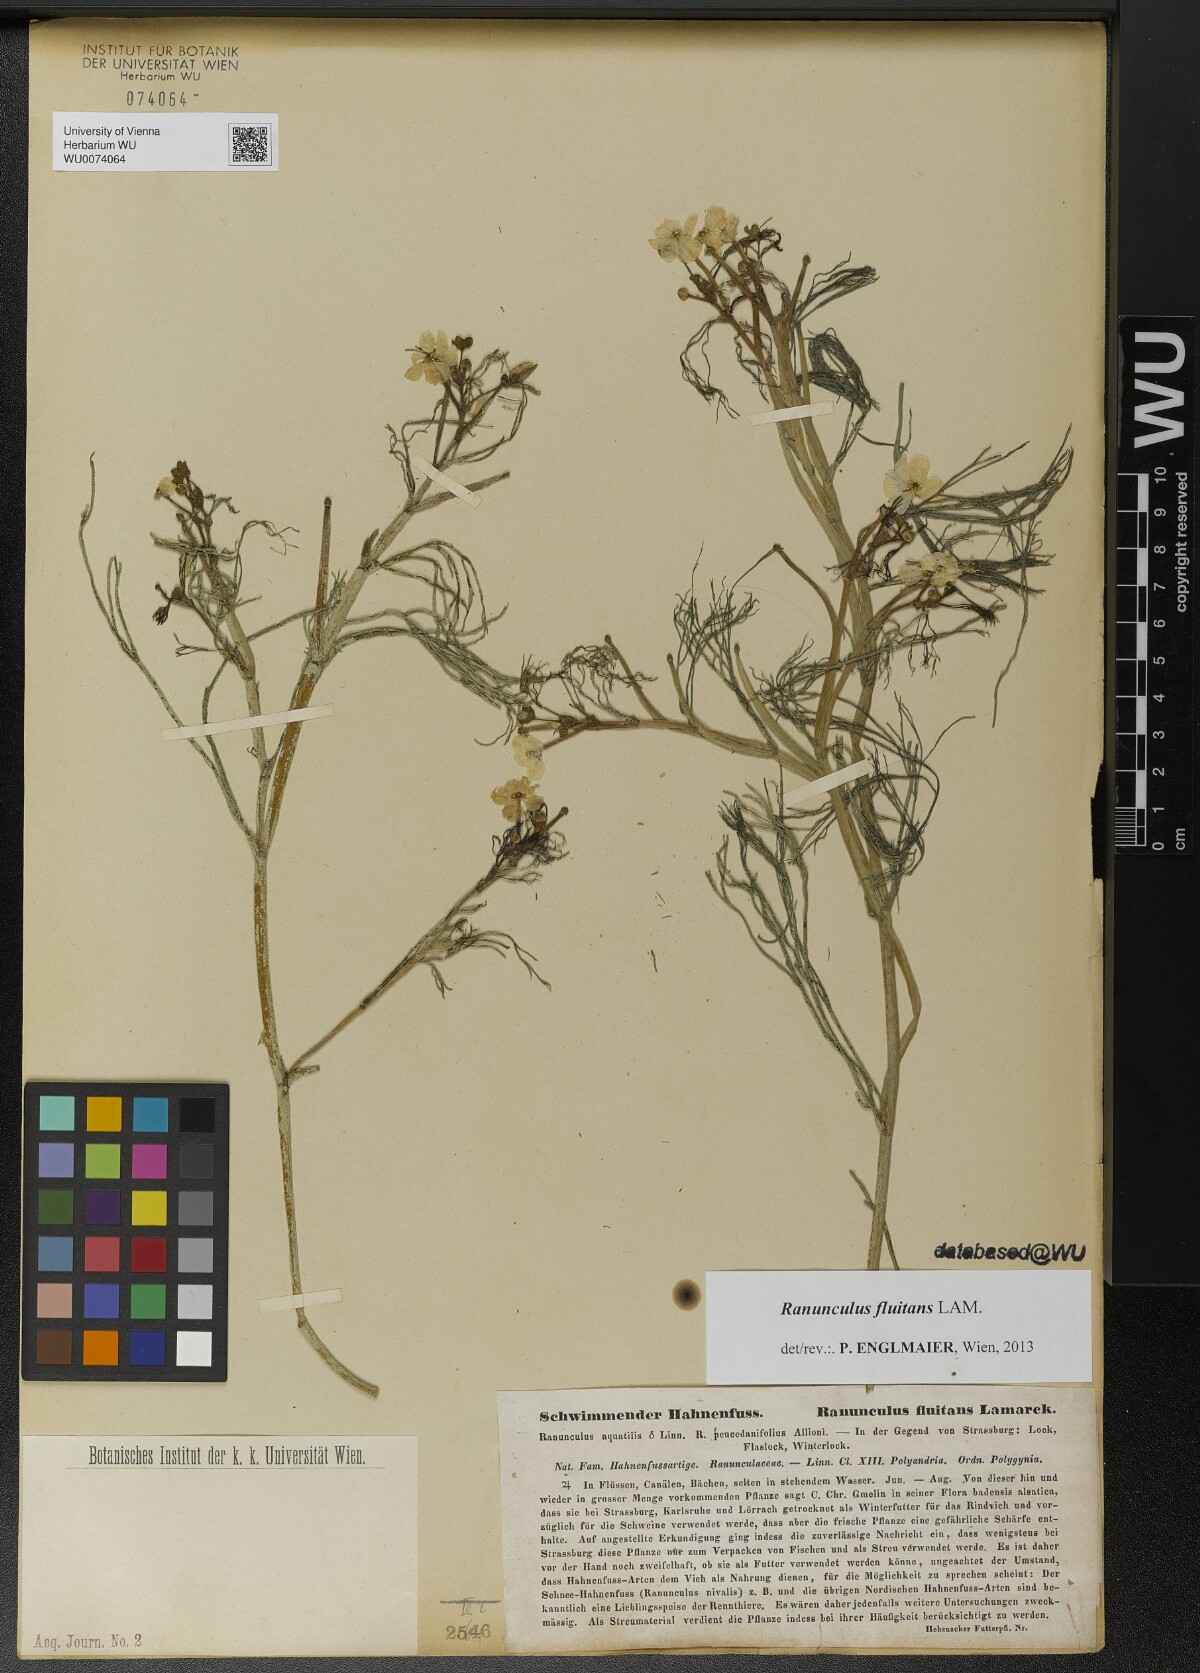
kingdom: Plantae
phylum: Tracheophyta
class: Magnoliopsida
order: Ranunculales
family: Ranunculaceae
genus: Ranunculus
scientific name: Ranunculus fluitans
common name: River water-crowfoot
